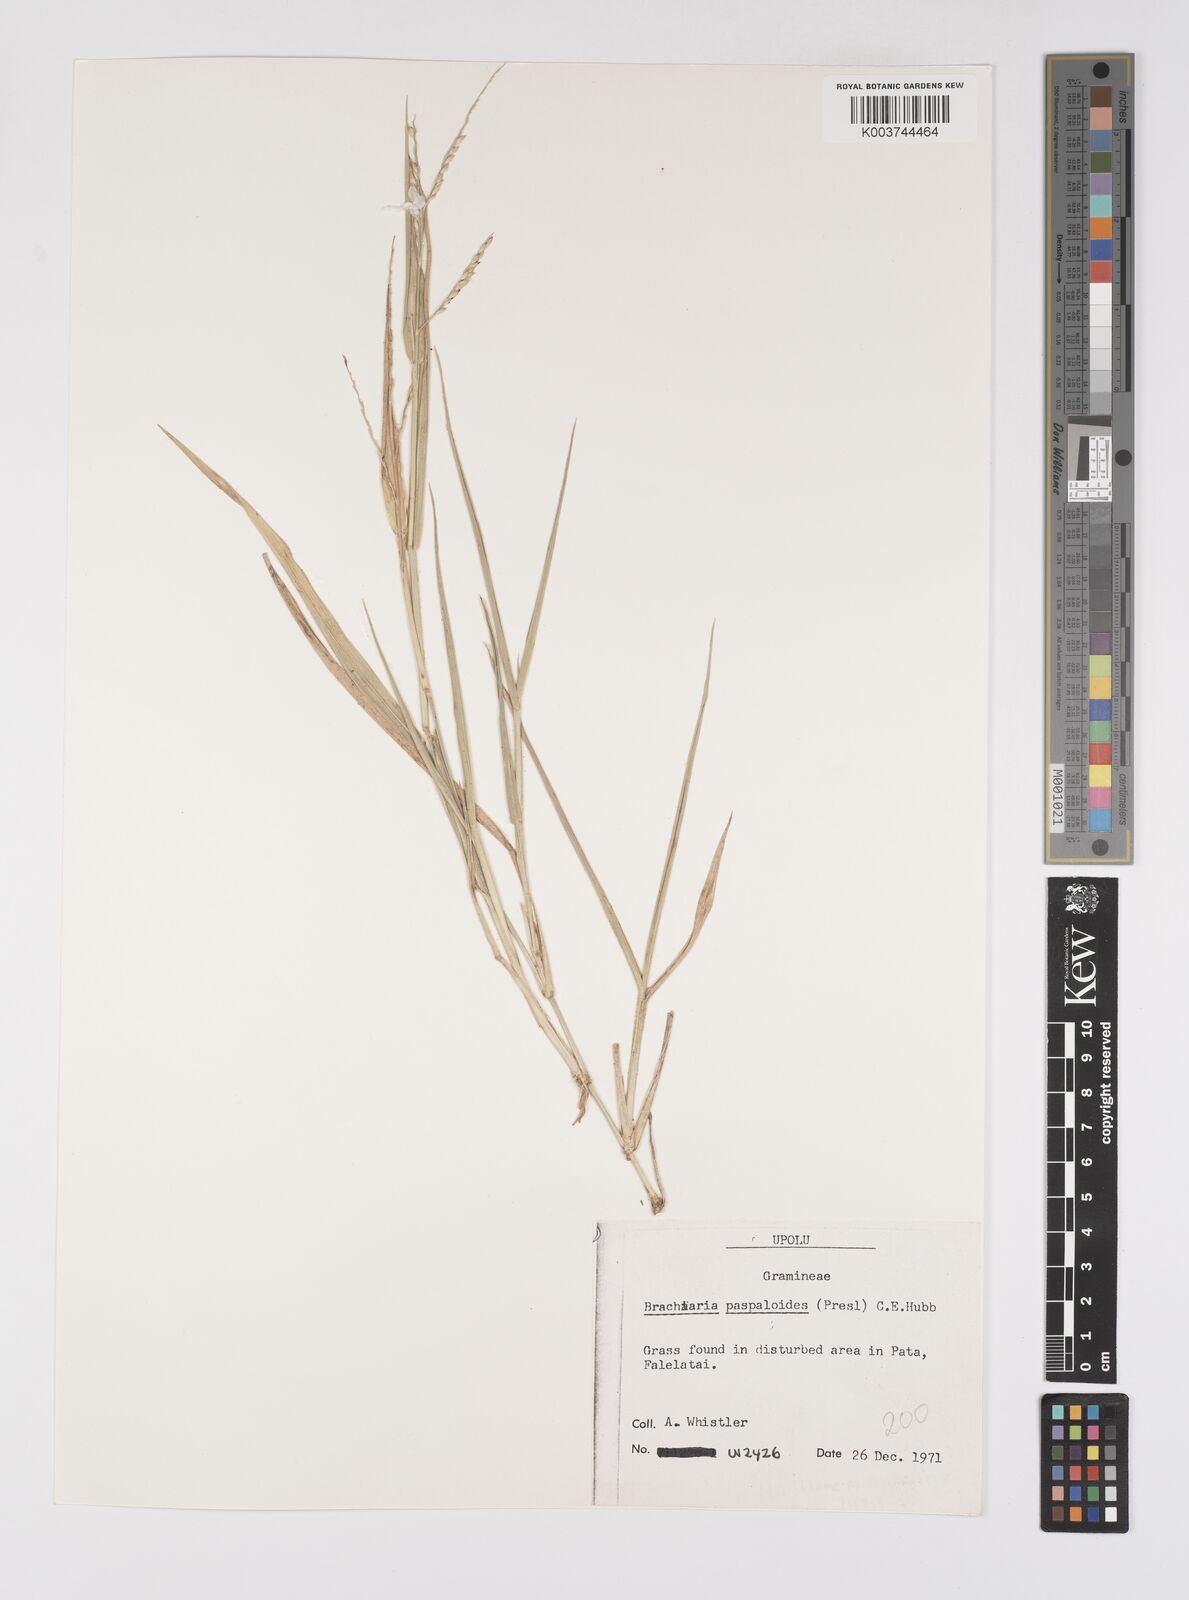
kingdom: Plantae
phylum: Tracheophyta
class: Liliopsida
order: Poales
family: Poaceae
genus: Urochloa
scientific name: Urochloa glumaris
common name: Thurston grass
